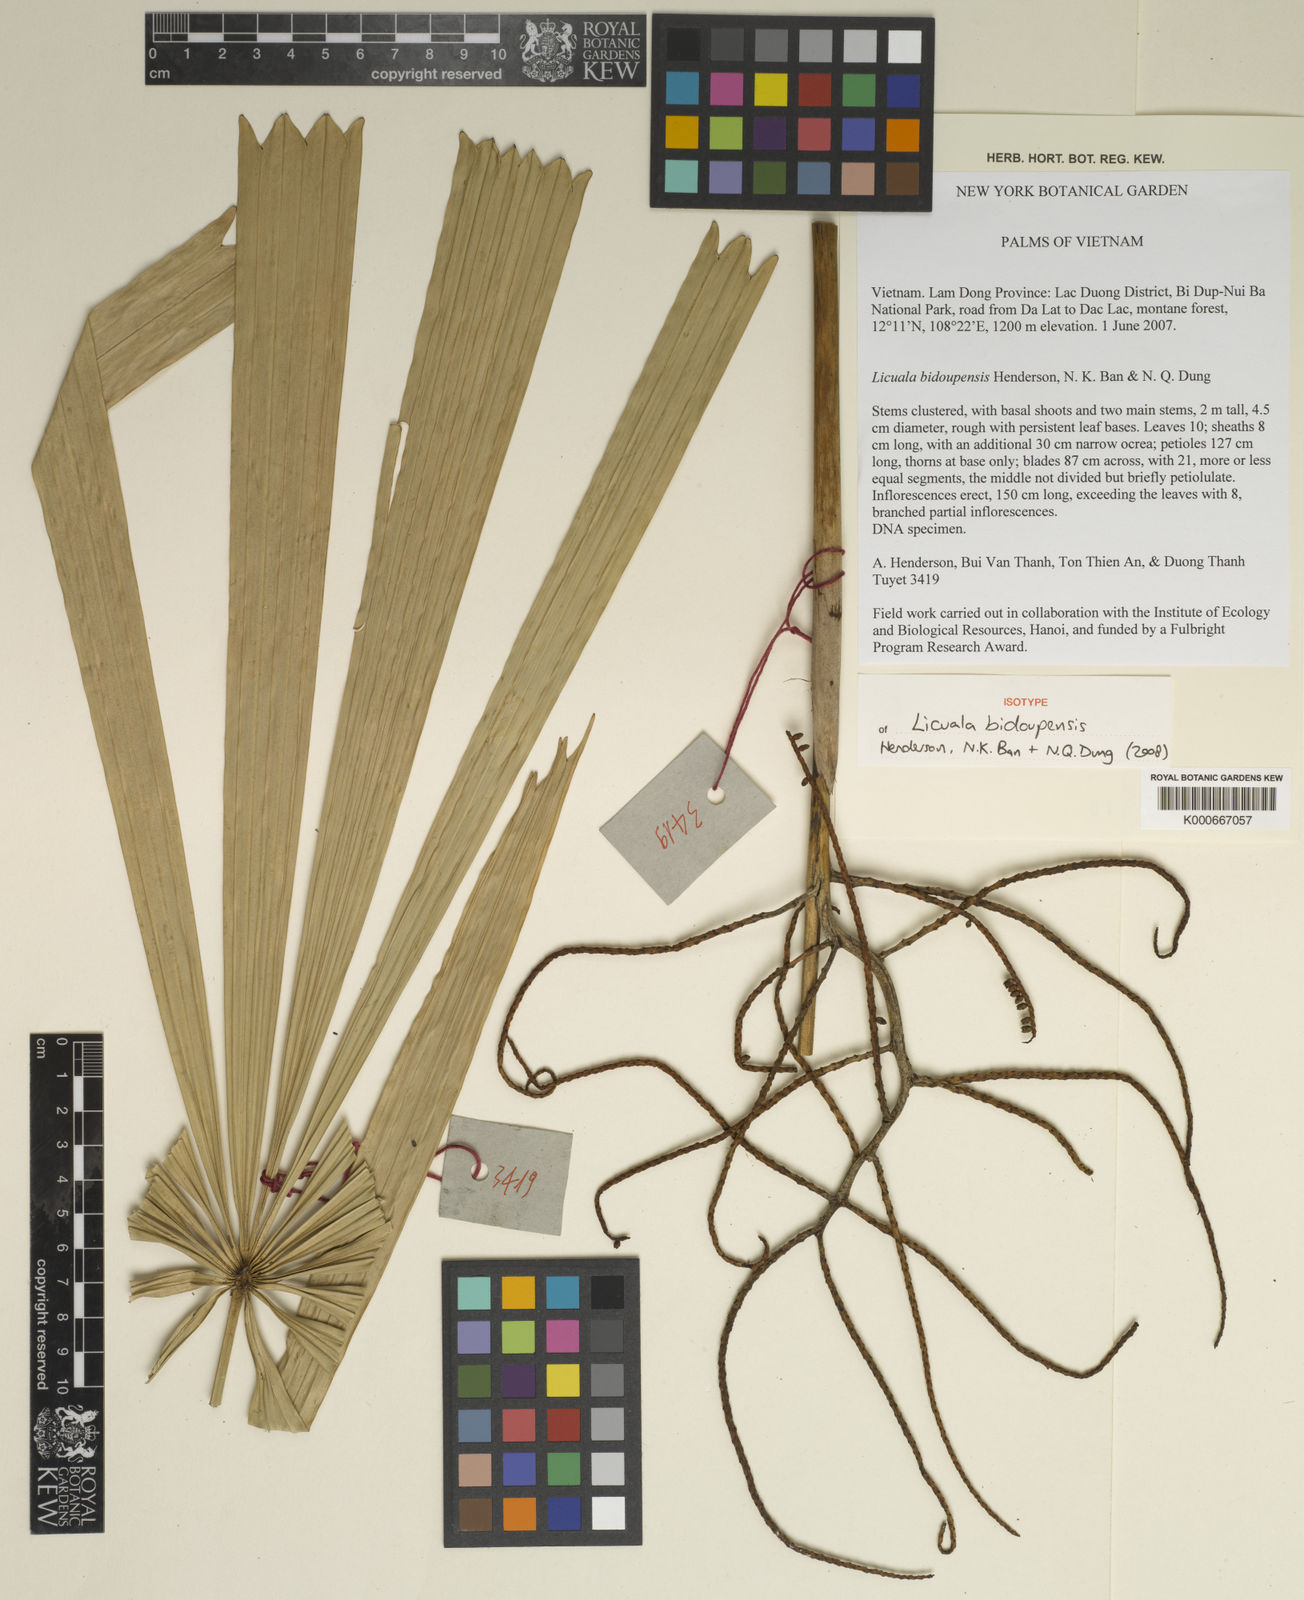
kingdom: Plantae
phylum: Tracheophyta
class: Liliopsida
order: Arecales
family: Arecaceae
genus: Licuala
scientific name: Licuala bidoupensis
